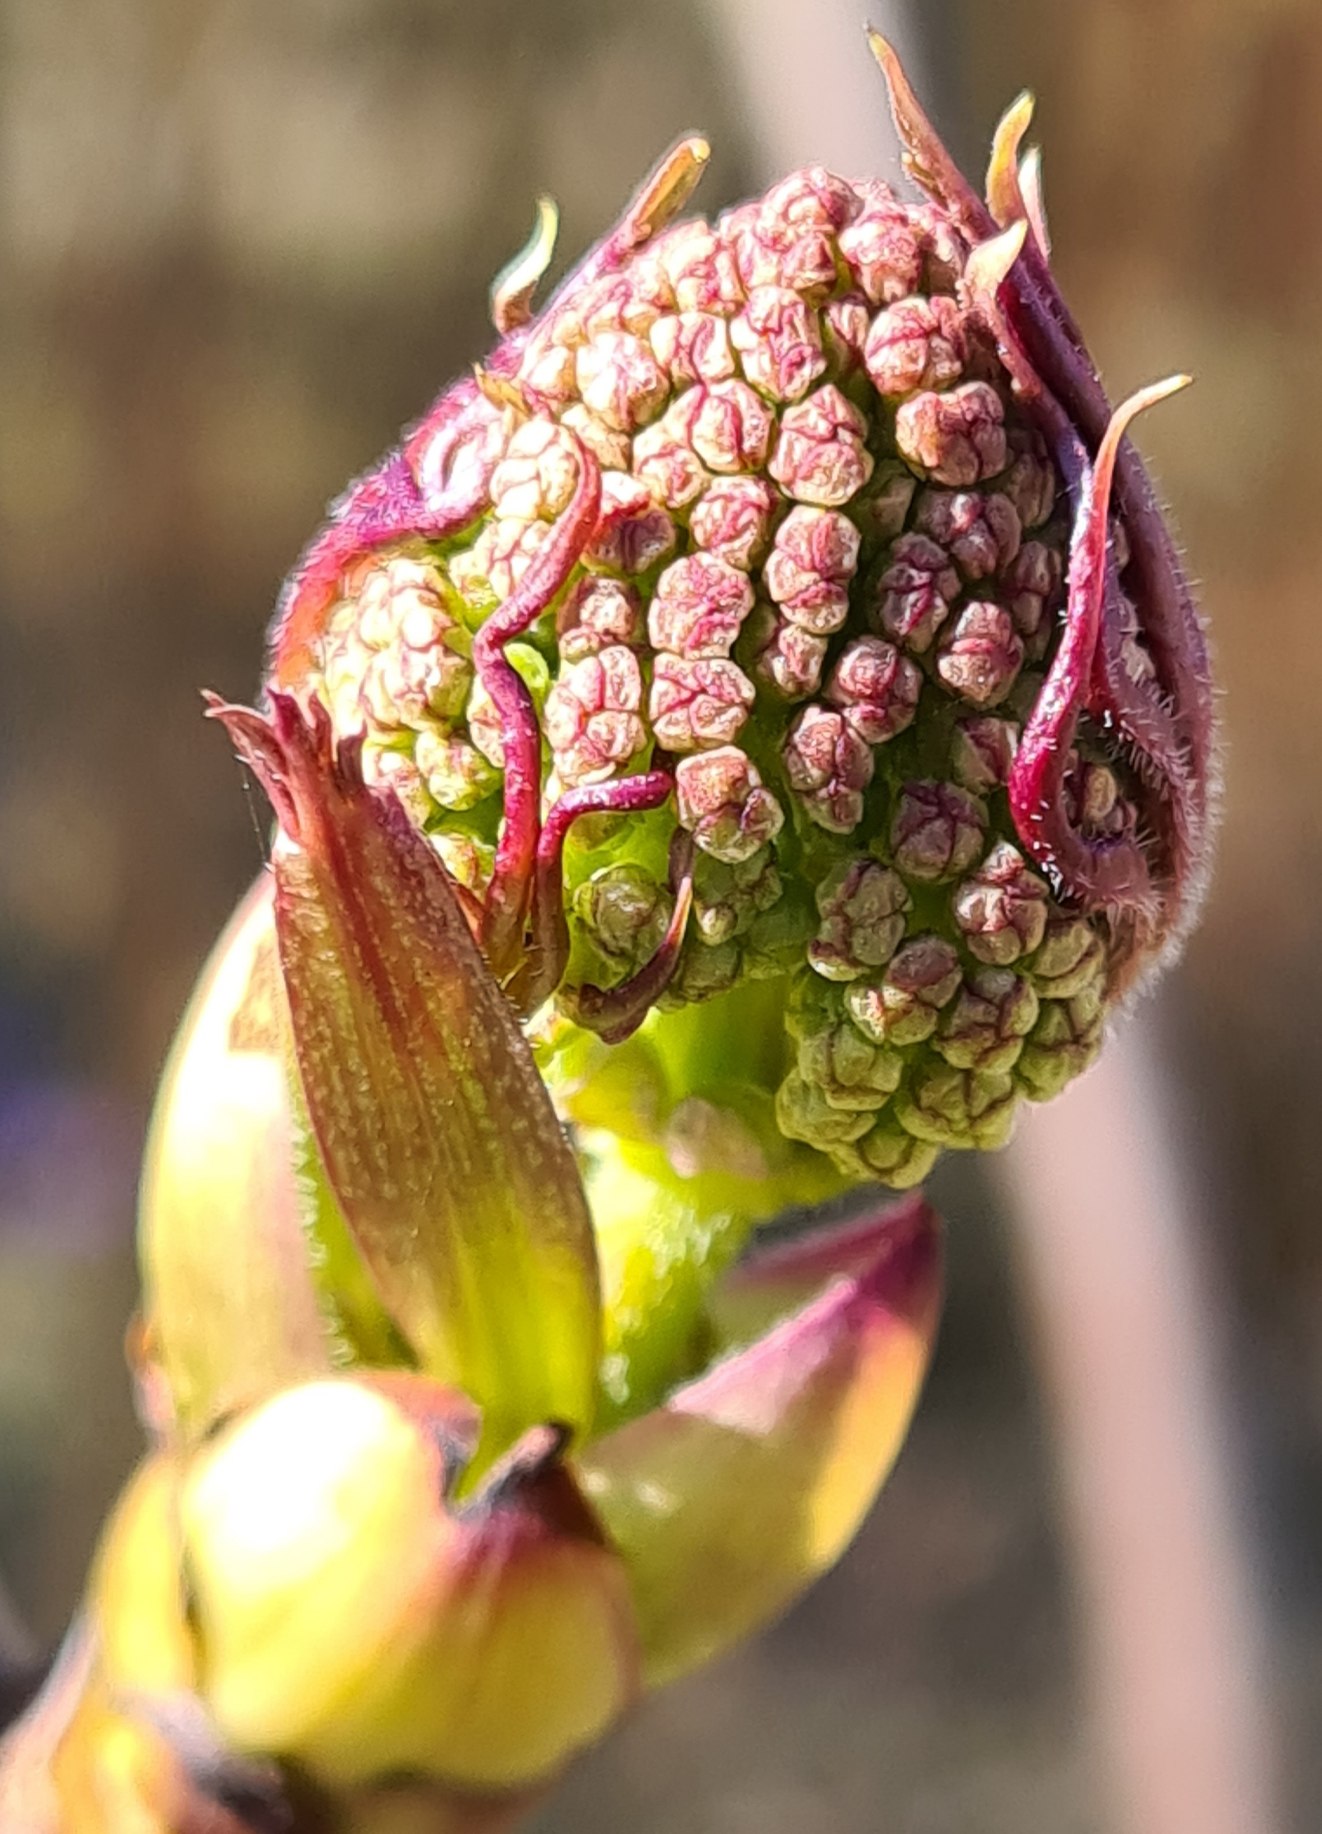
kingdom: Plantae
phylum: Tracheophyta
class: Magnoliopsida
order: Dipsacales
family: Viburnaceae
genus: Sambucus
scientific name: Sambucus racemosa
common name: Drue-hyld
